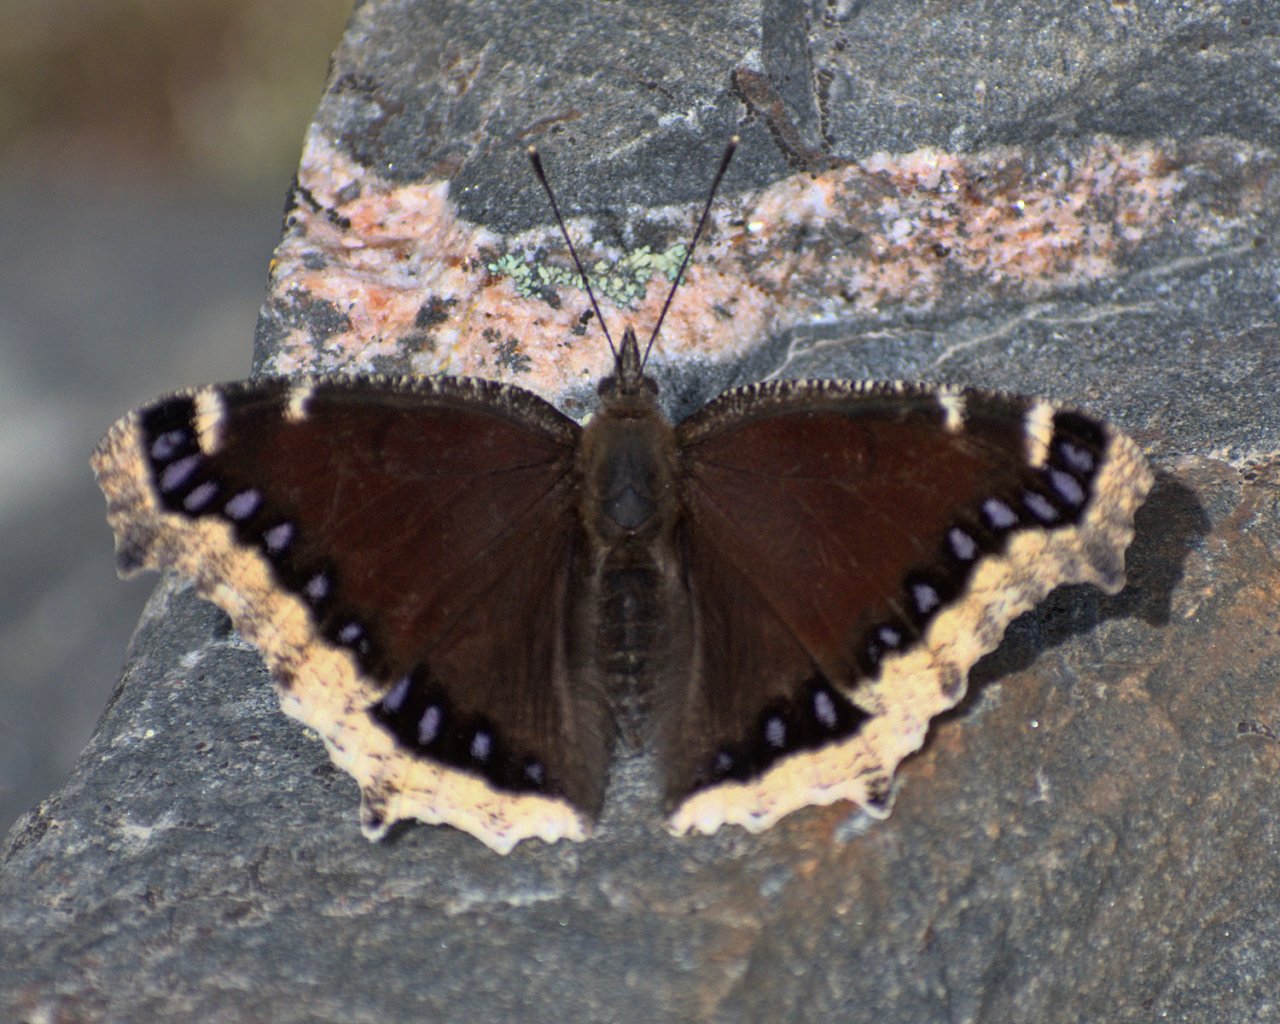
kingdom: Animalia
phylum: Arthropoda
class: Insecta
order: Lepidoptera
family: Nymphalidae
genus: Nymphalis
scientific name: Nymphalis antiopa
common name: Mourning Cloak
